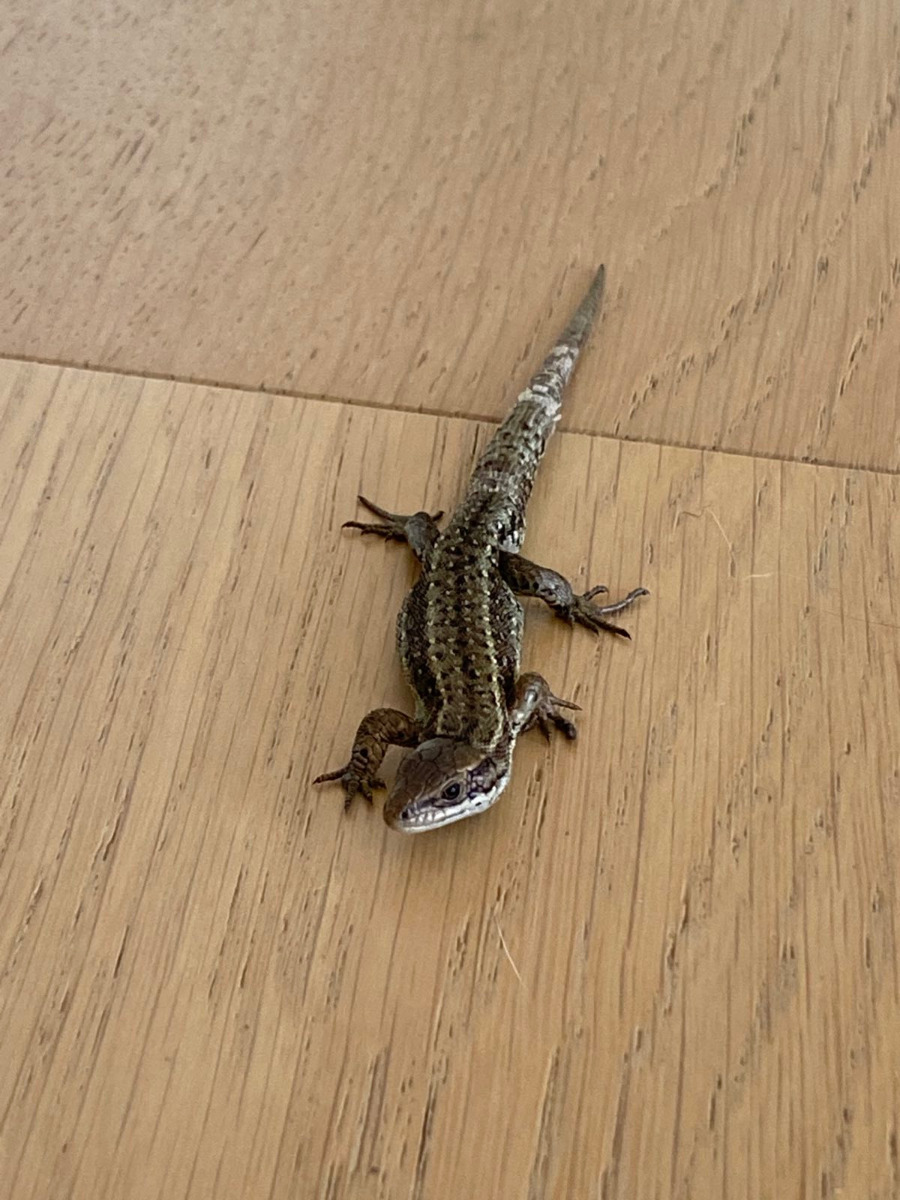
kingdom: Animalia
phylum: Chordata
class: Squamata
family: Lacertidae
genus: Zootoca
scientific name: Zootoca vivipara
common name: Skovfirben
